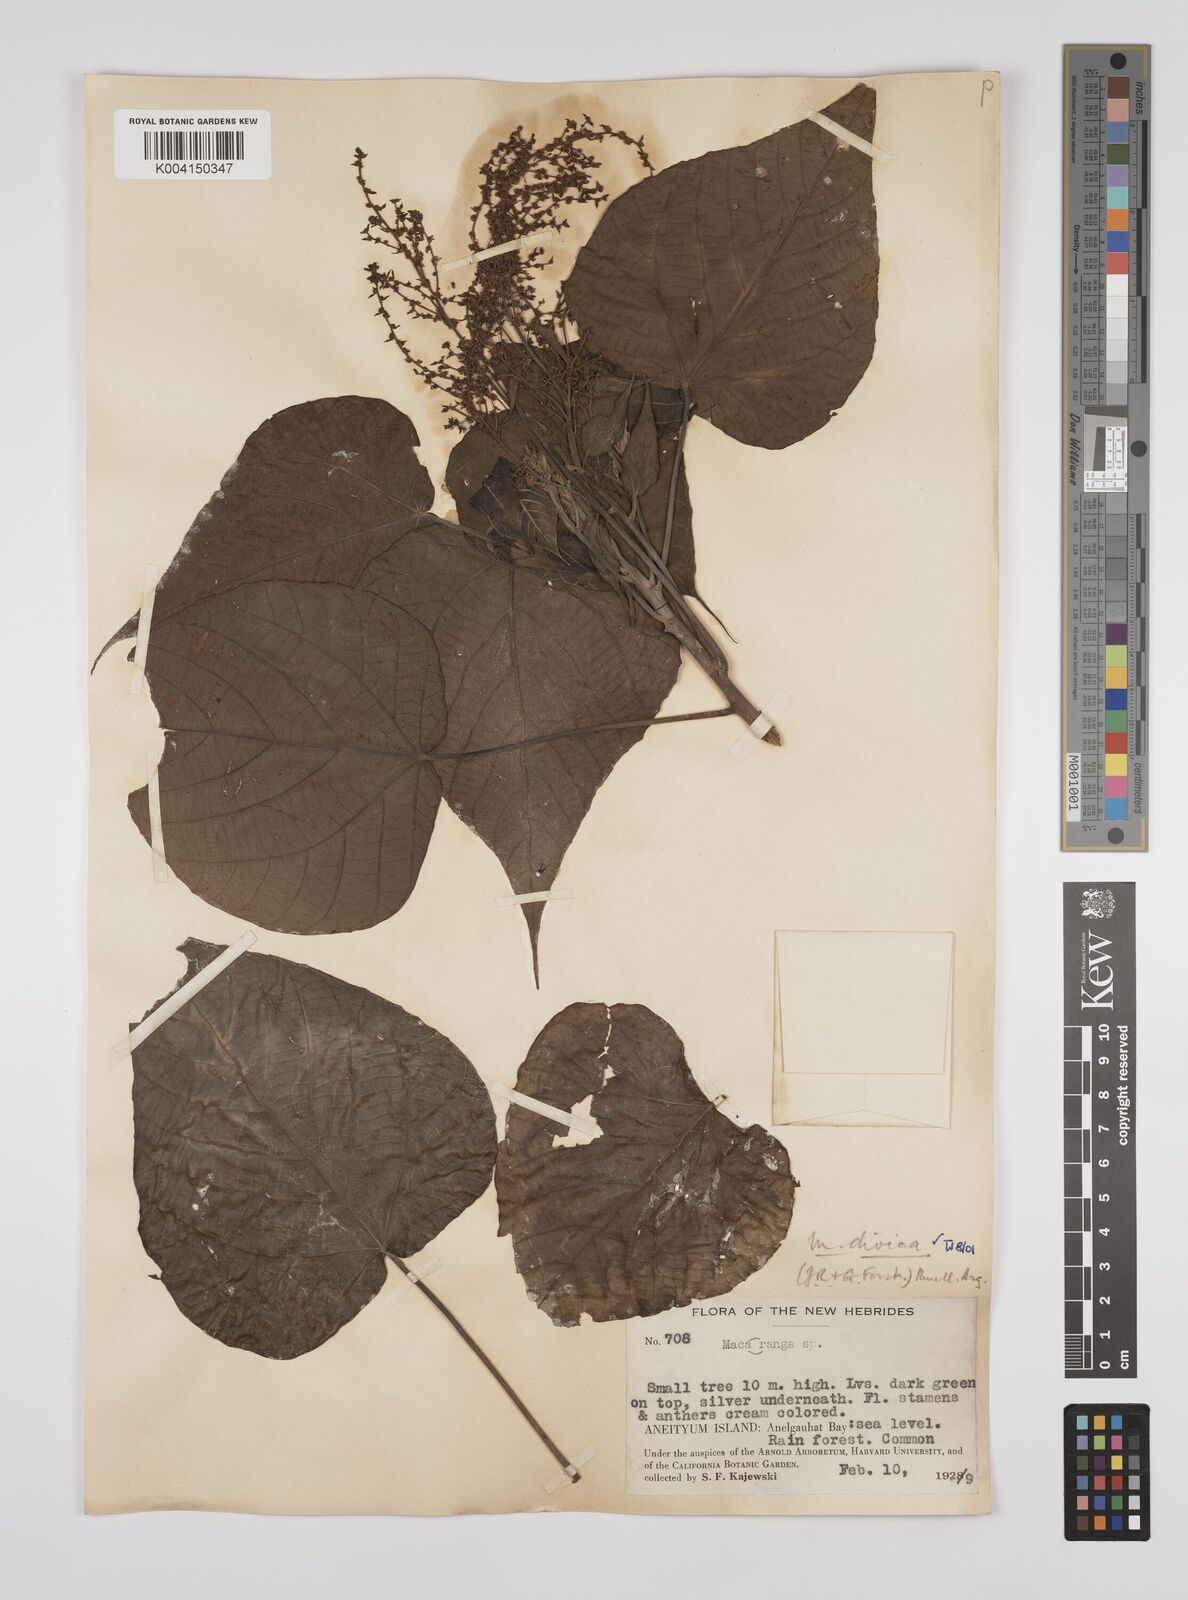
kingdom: Plantae
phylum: Tracheophyta
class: Magnoliopsida
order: Malpighiales
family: Euphorbiaceae
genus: Macaranga
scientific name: Macaranga dioica
